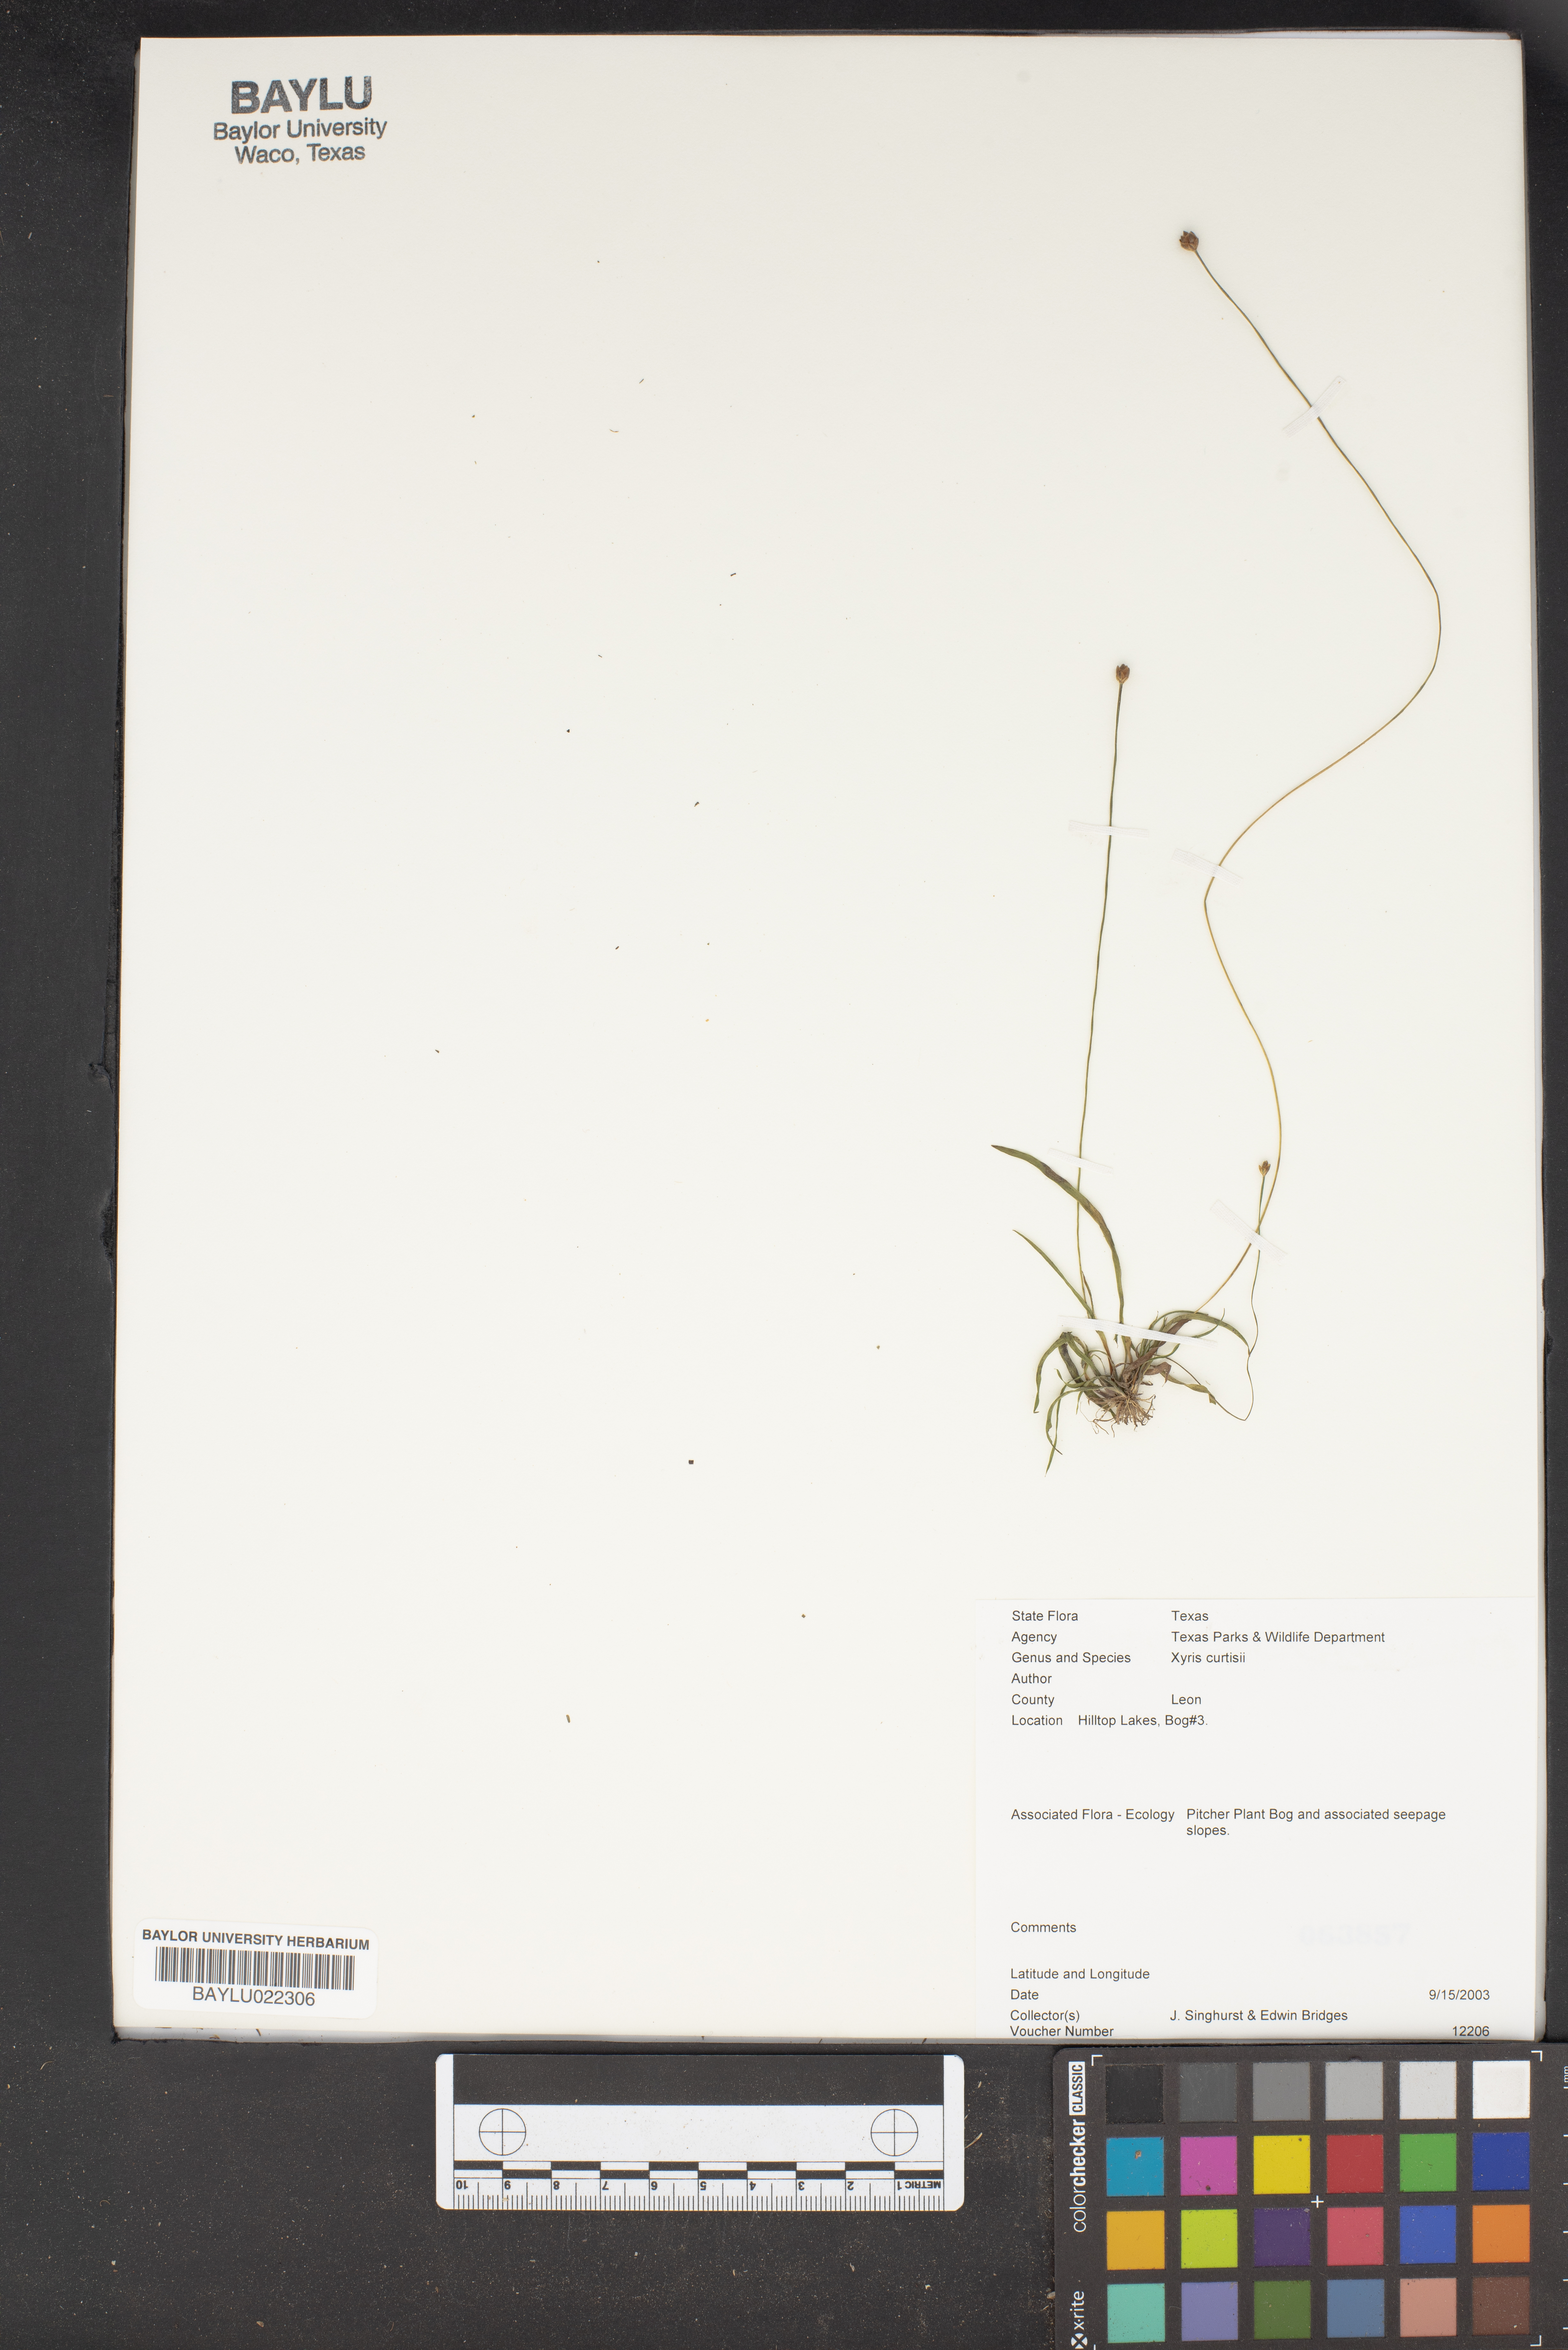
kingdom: Plantae
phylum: Tracheophyta
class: Liliopsida
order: Poales
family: Xyridaceae
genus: Xyris
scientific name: Xyris difformis
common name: Bog yellow-eyed-grass
